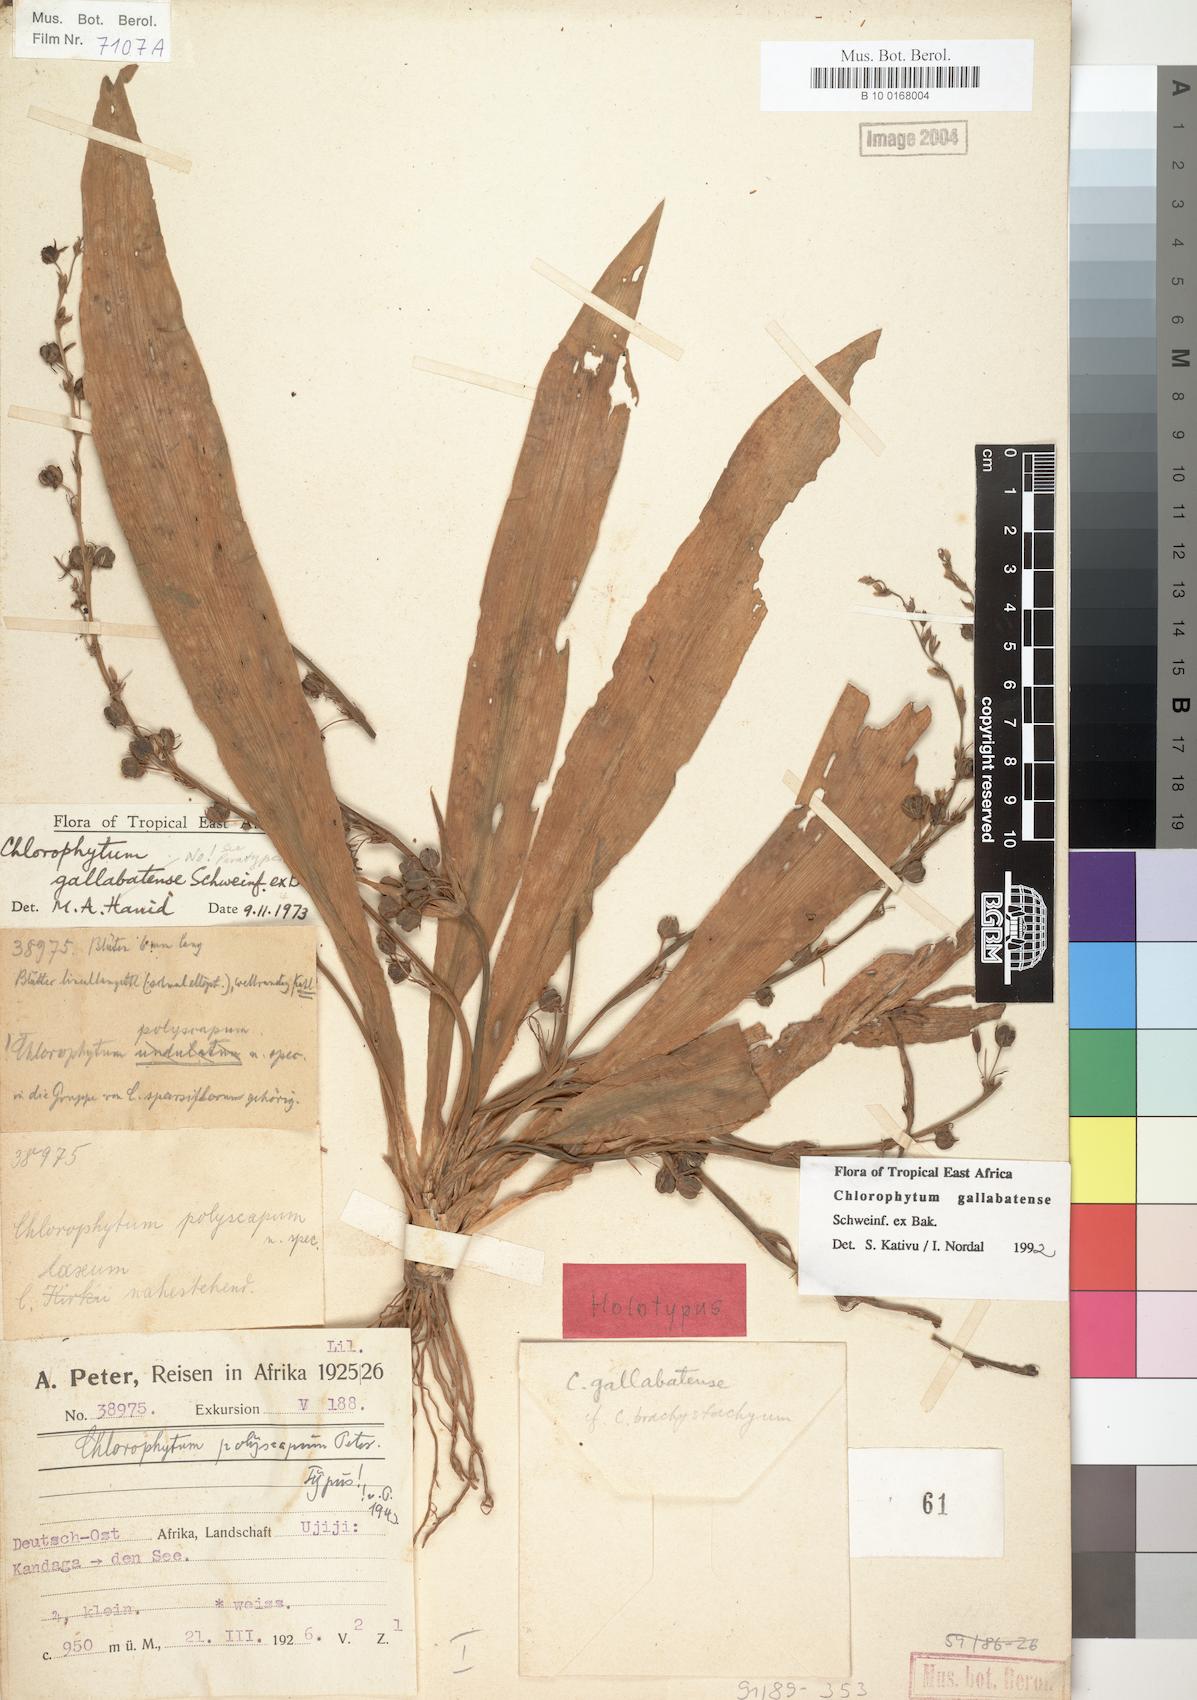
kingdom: Plantae
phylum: Tracheophyta
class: Liliopsida
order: Asparagales
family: Asparagaceae
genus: Chlorophytum
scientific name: Chlorophytum gallabatense
